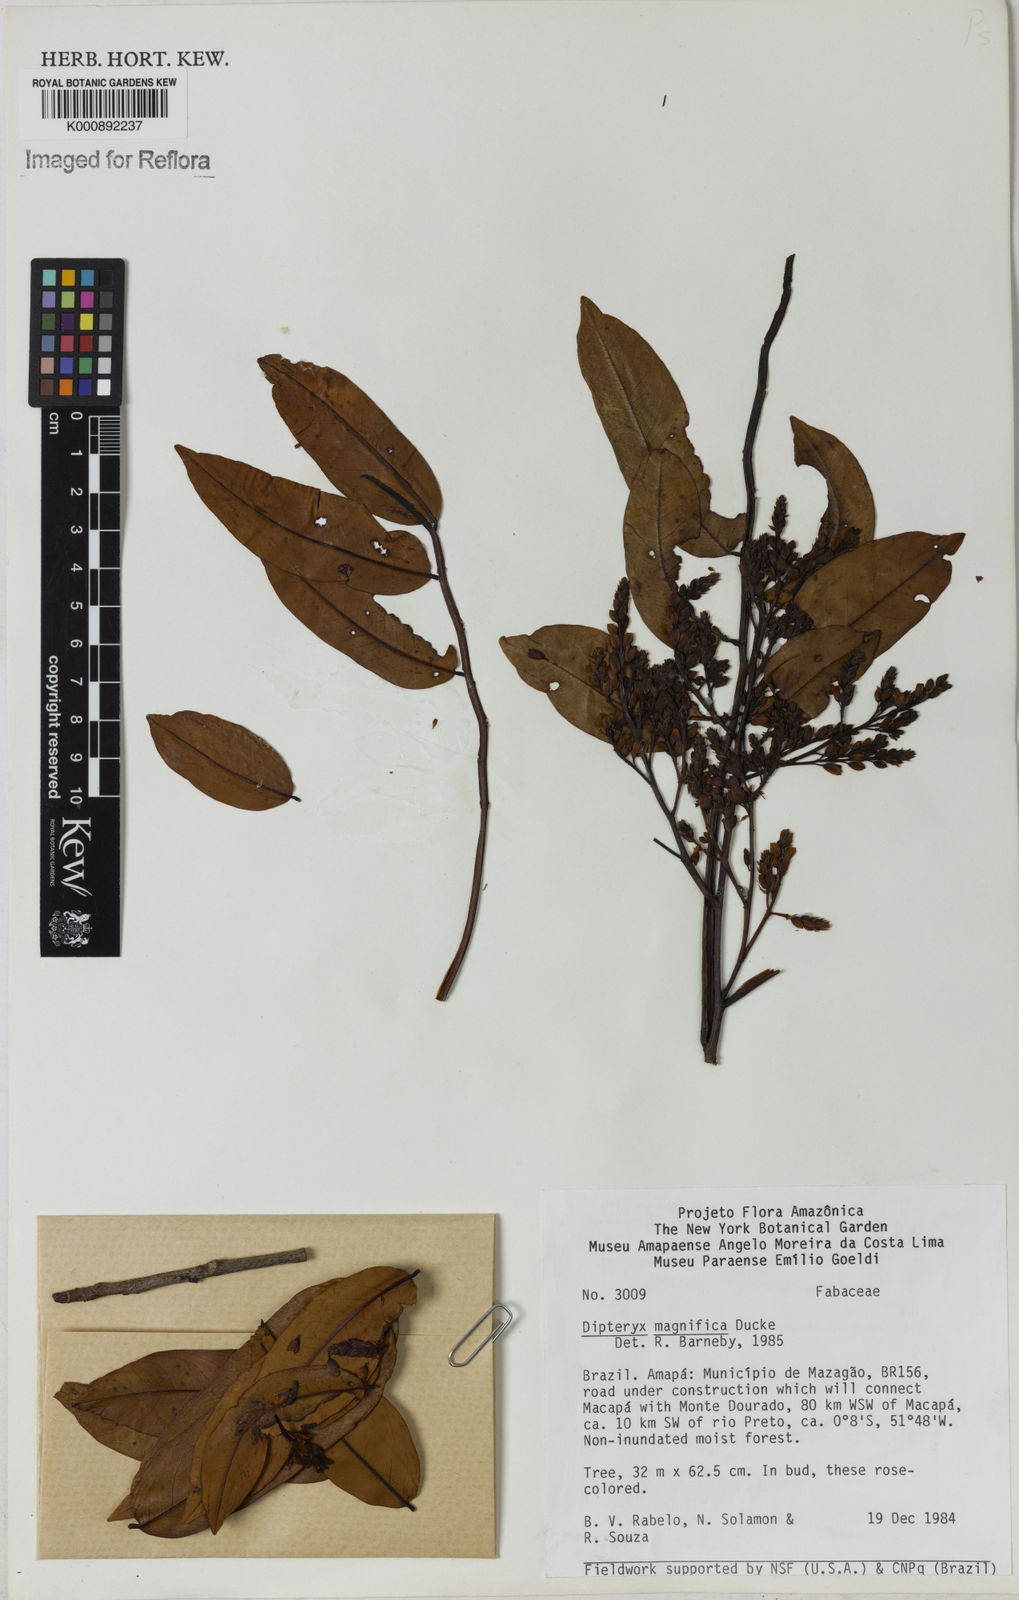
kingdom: Plantae
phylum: Tracheophyta
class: Magnoliopsida
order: Fabales
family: Fabaceae
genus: Dipteryx
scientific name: Dipteryx magnifica
